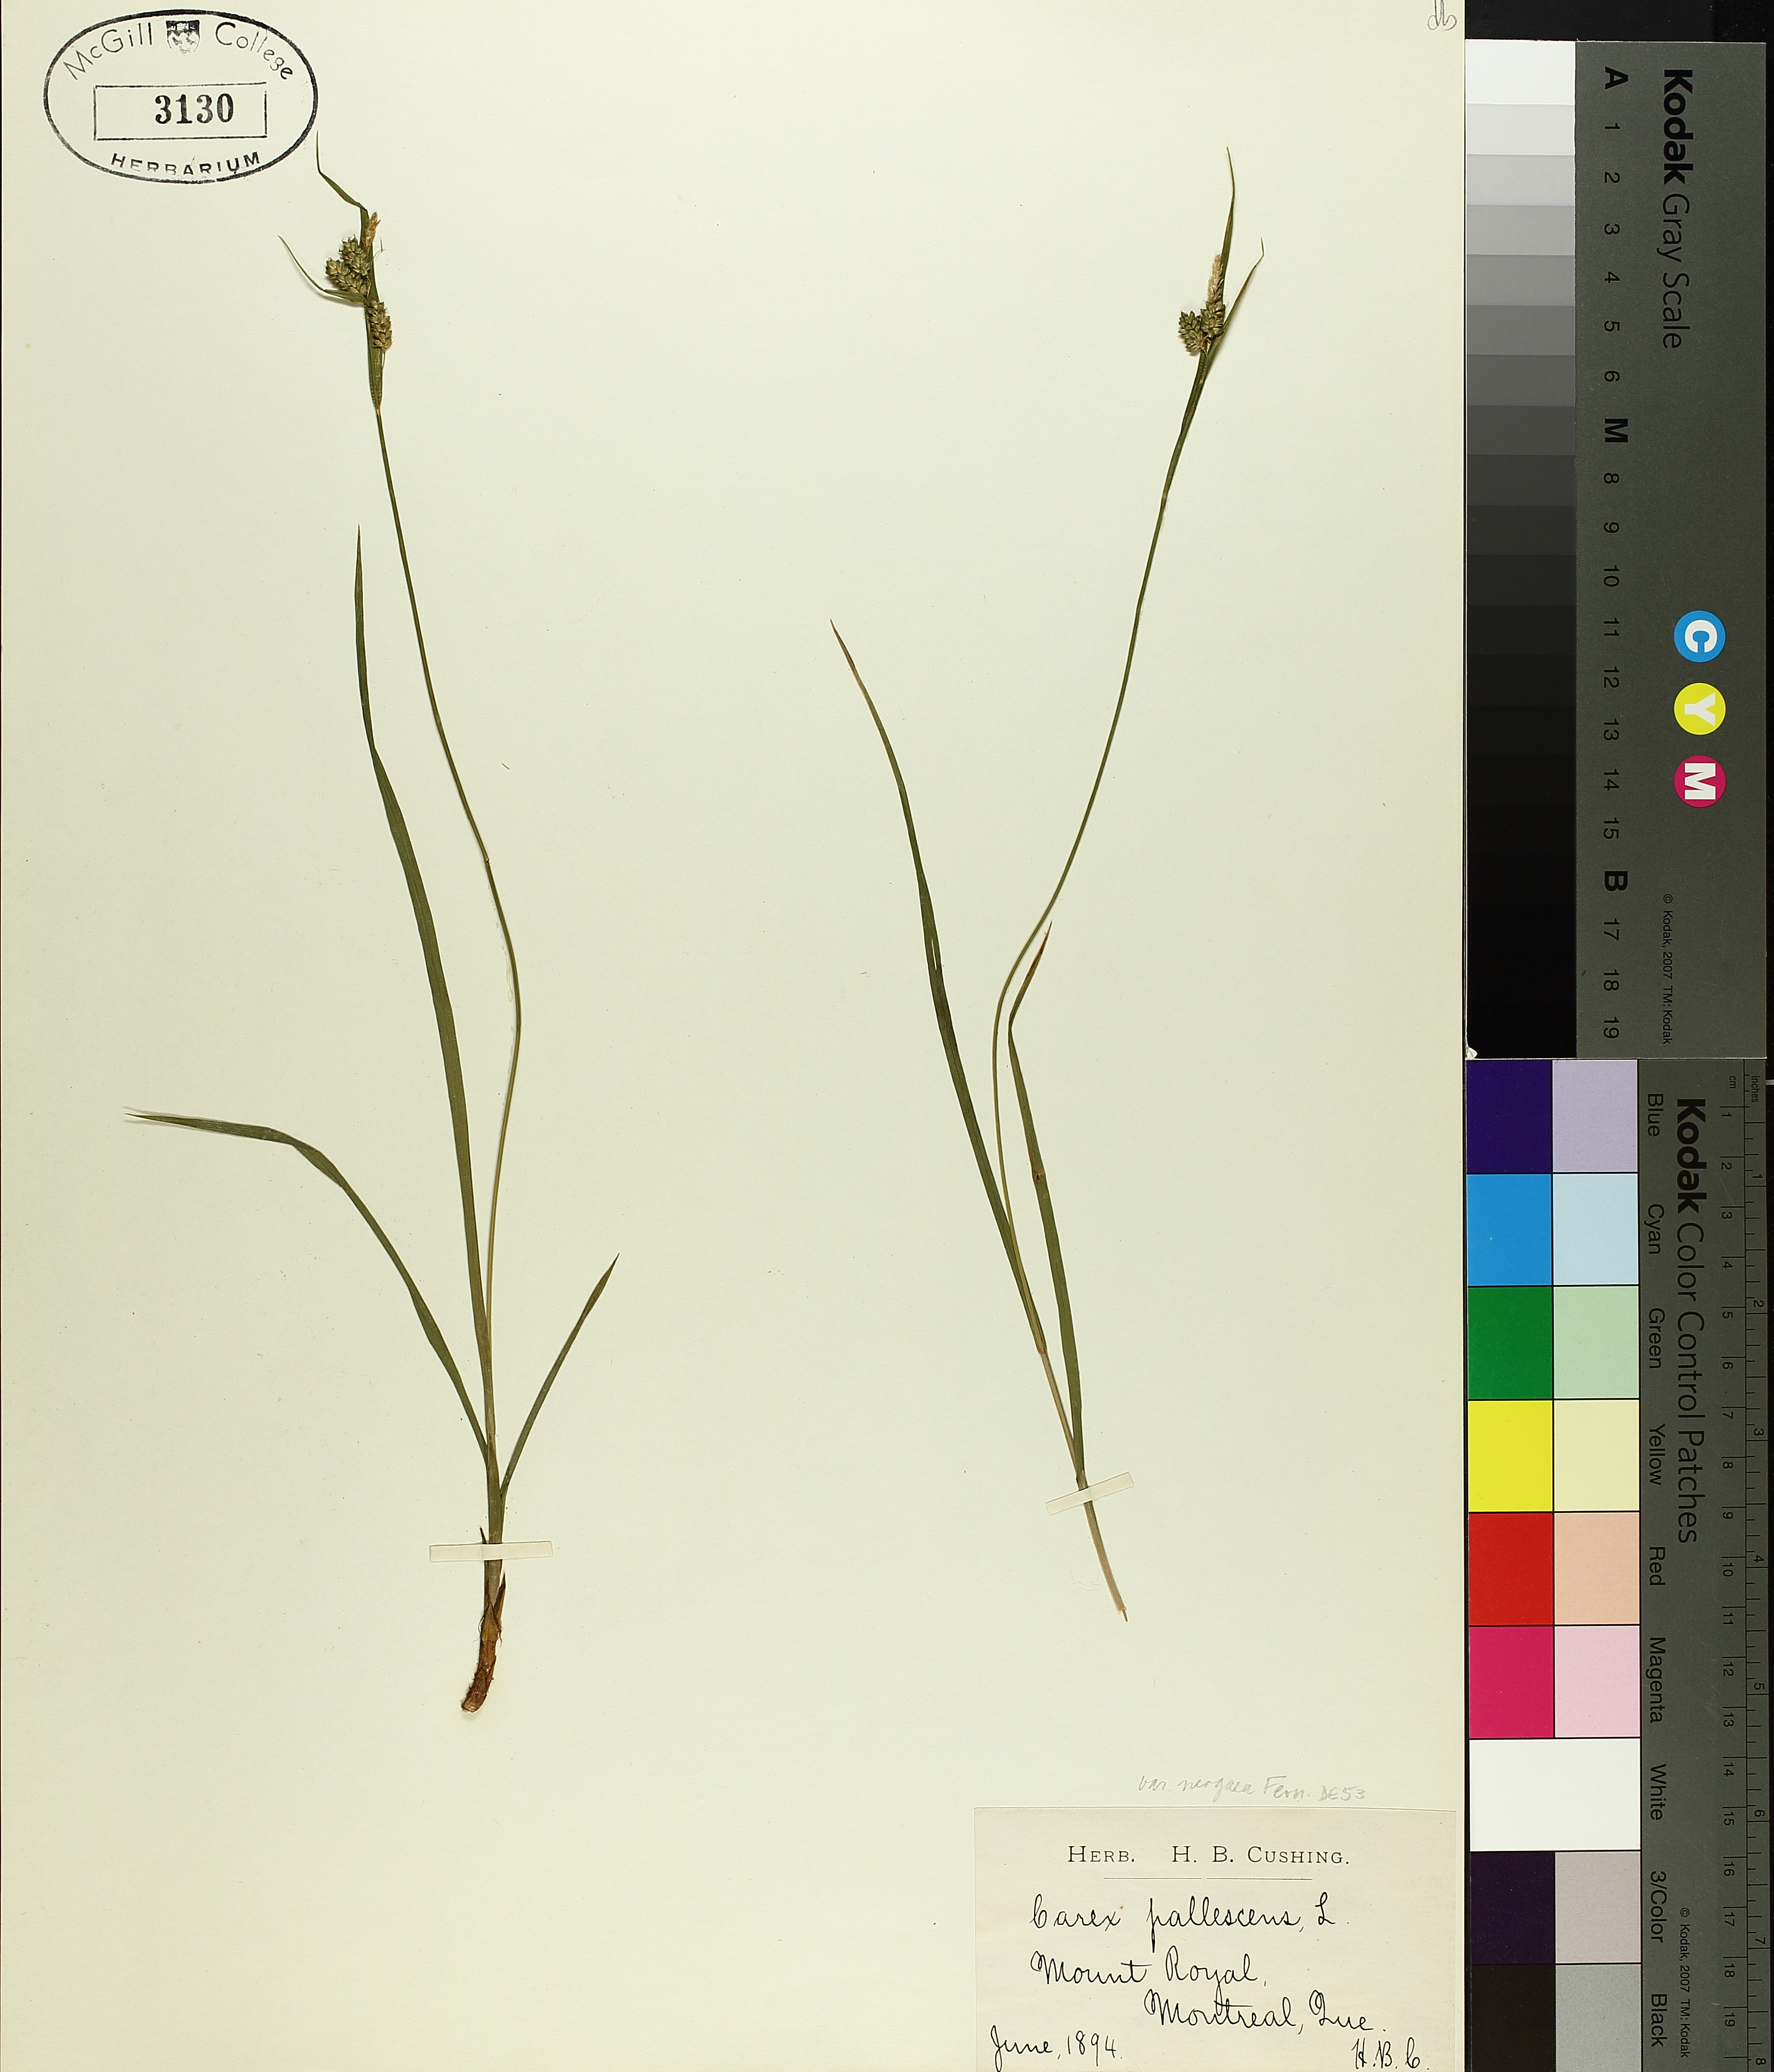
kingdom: Plantae
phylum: Tracheophyta
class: Liliopsida
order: Poales
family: Cyperaceae
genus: Carex
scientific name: Carex pallescens
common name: Pale sedge
